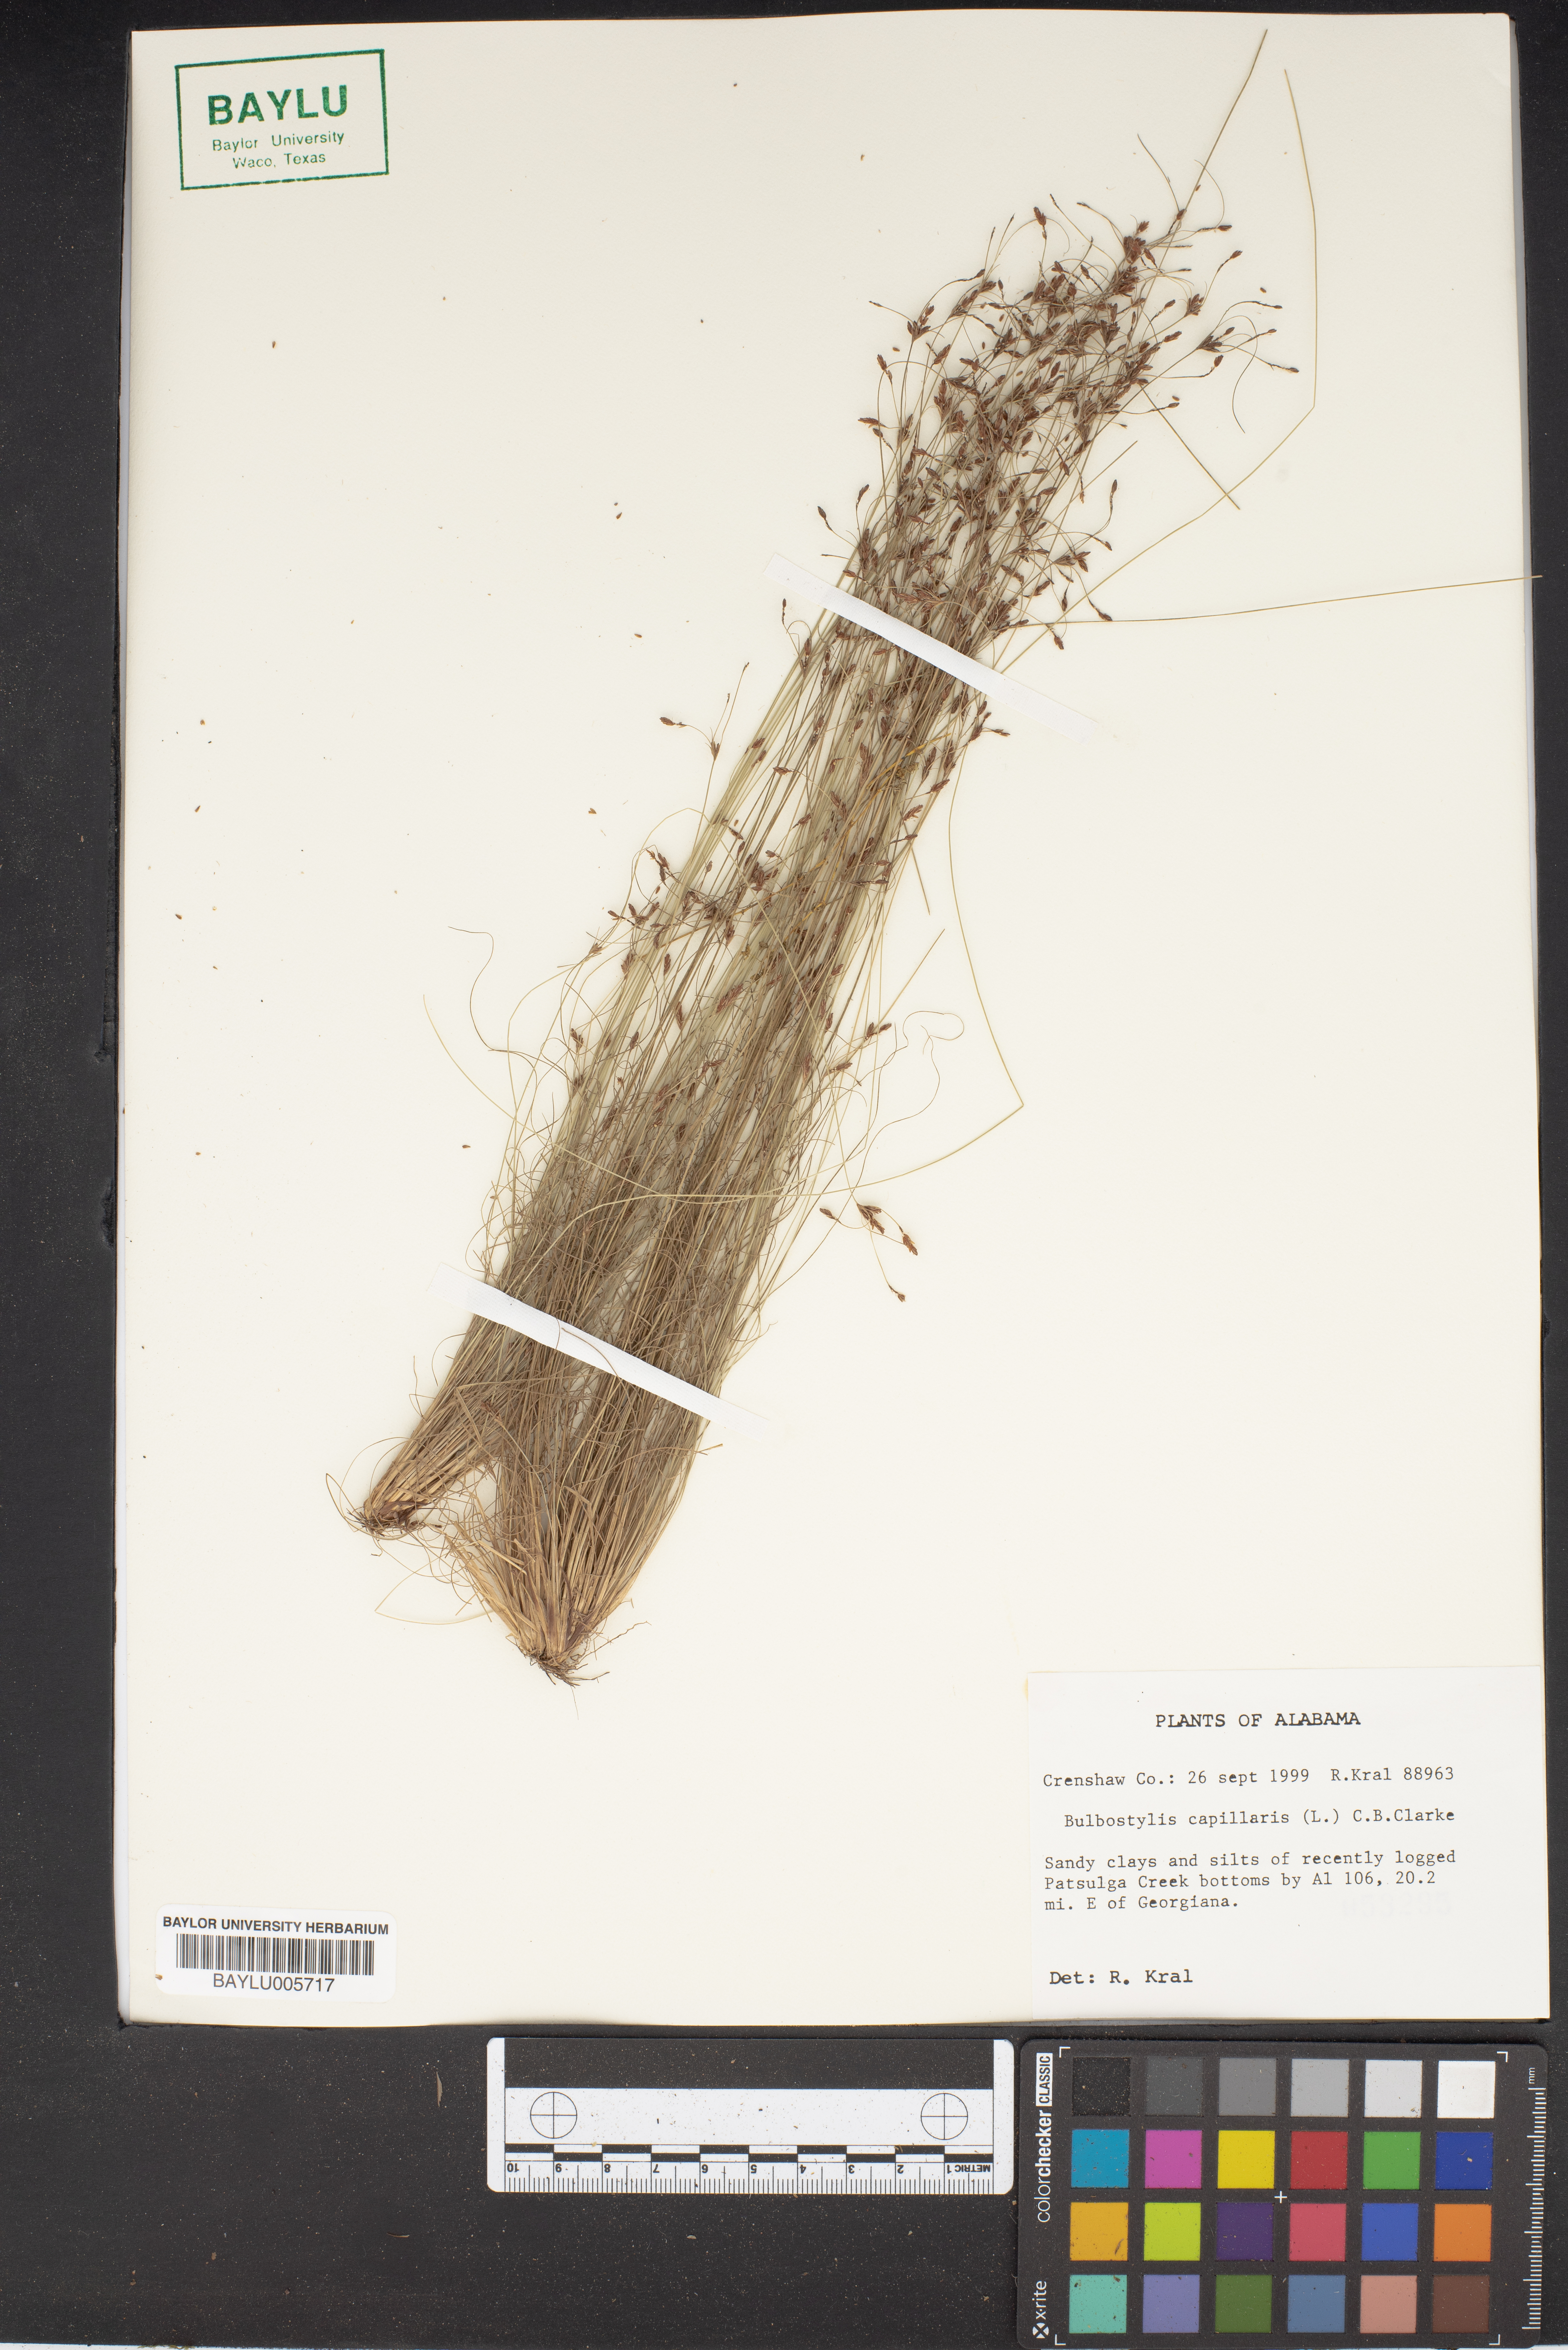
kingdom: Plantae
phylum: Tracheophyta
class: Liliopsida
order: Poales
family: Cyperaceae
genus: Bulbostylis
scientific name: Bulbostylis capillaris
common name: Densetuft hairsedge
